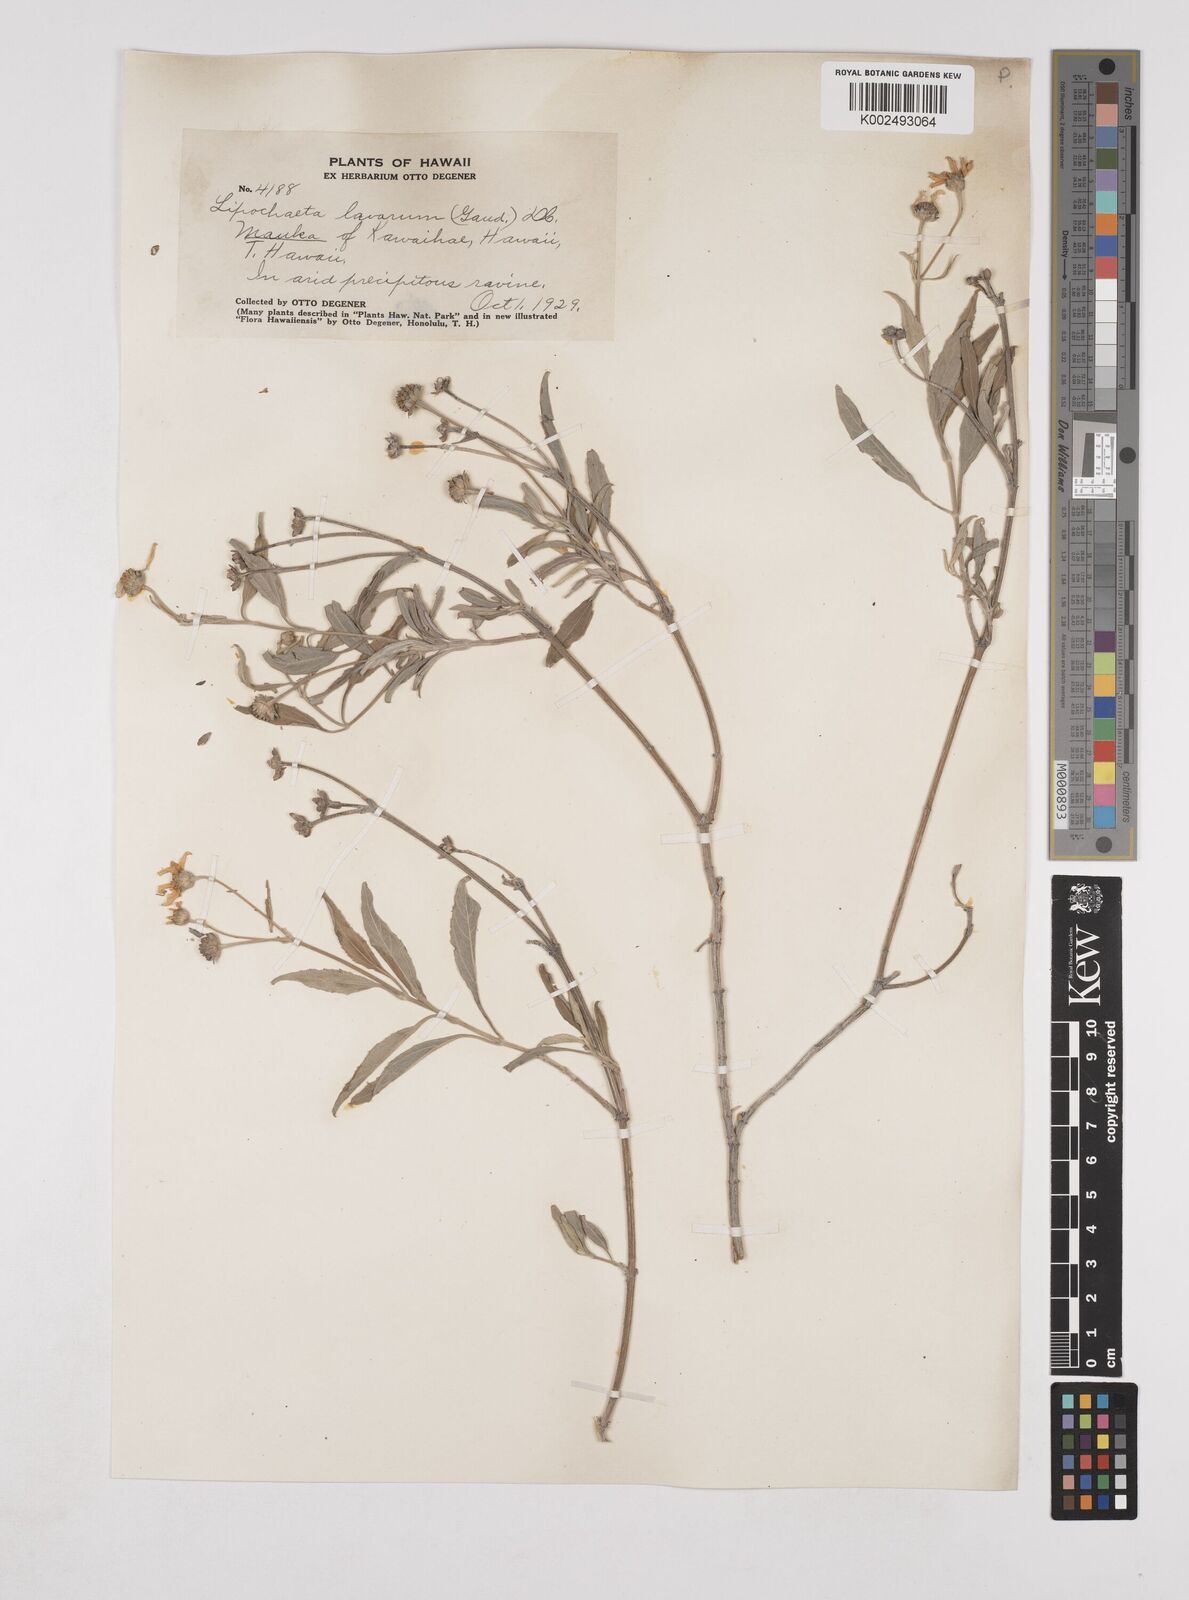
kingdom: Plantae
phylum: Tracheophyta
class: Magnoliopsida
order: Asterales
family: Asteraceae
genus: Lipochaeta
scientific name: Lipochaeta lavarum
